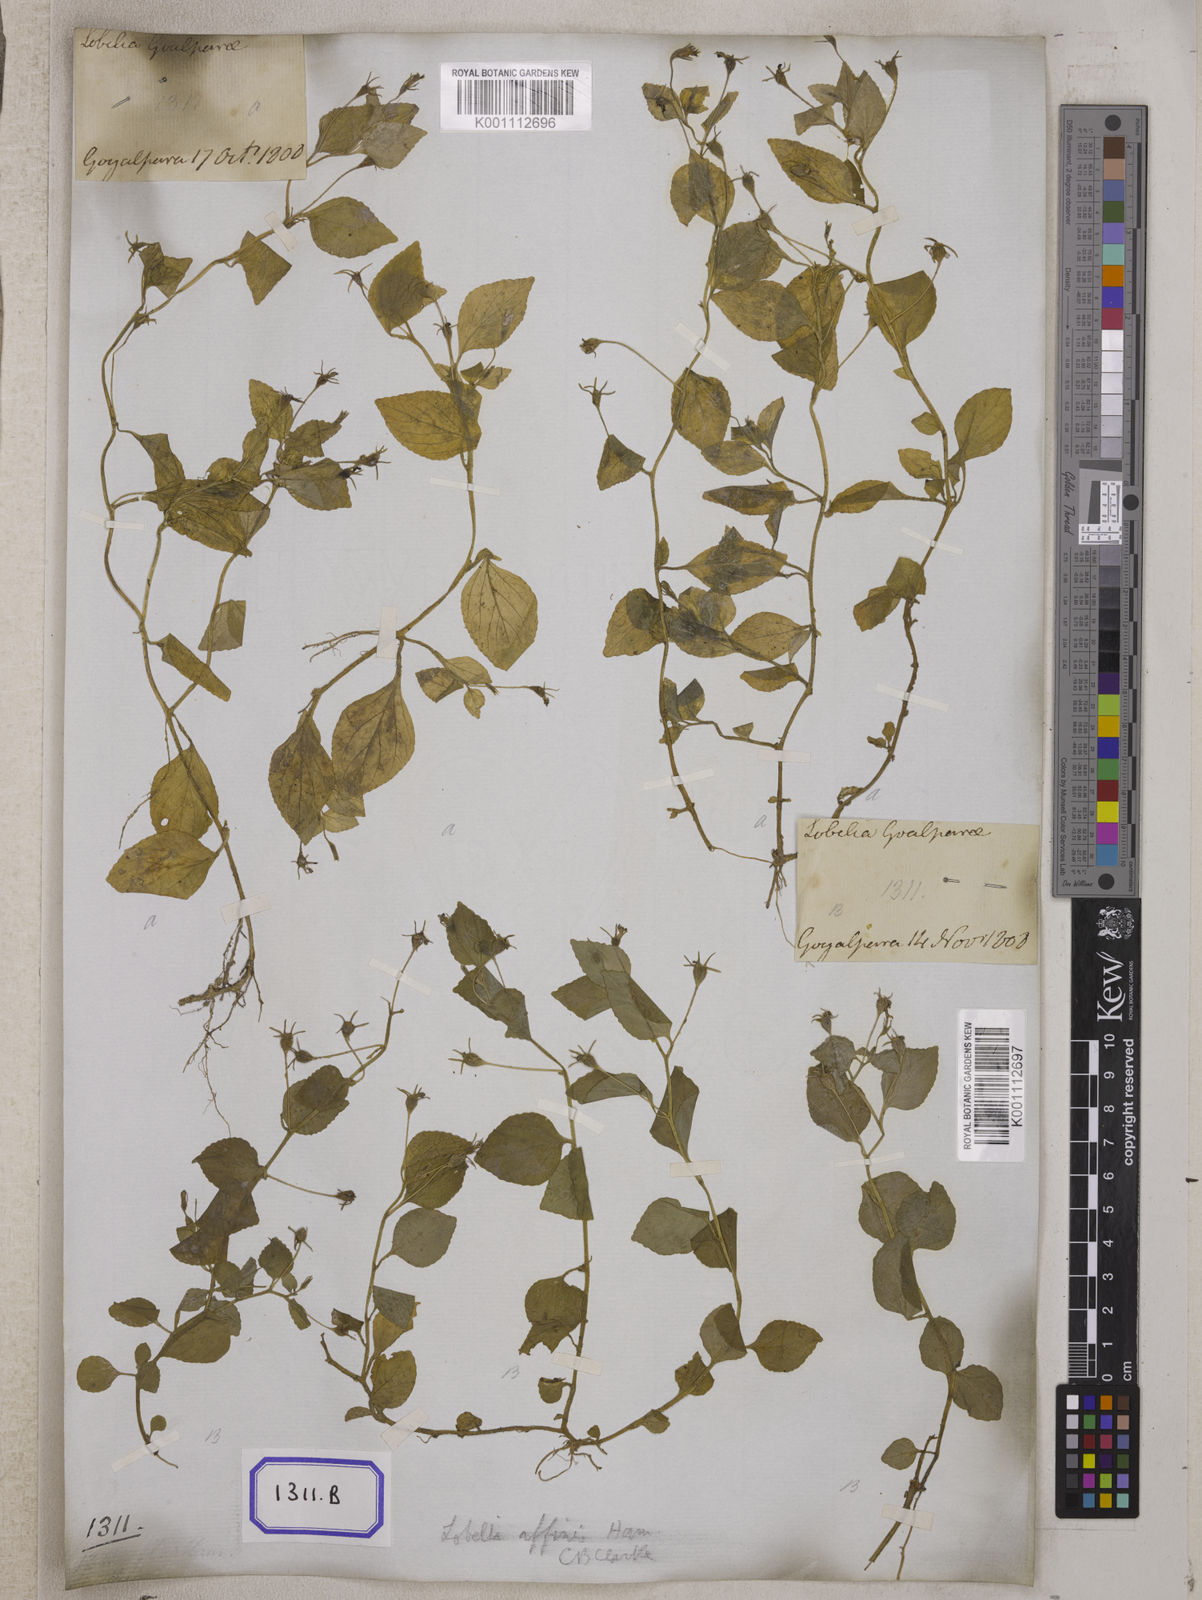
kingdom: Plantae
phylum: Tracheophyta
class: Magnoliopsida
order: Asterales
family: Campanulaceae
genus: Lobelia
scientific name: Lobelia
